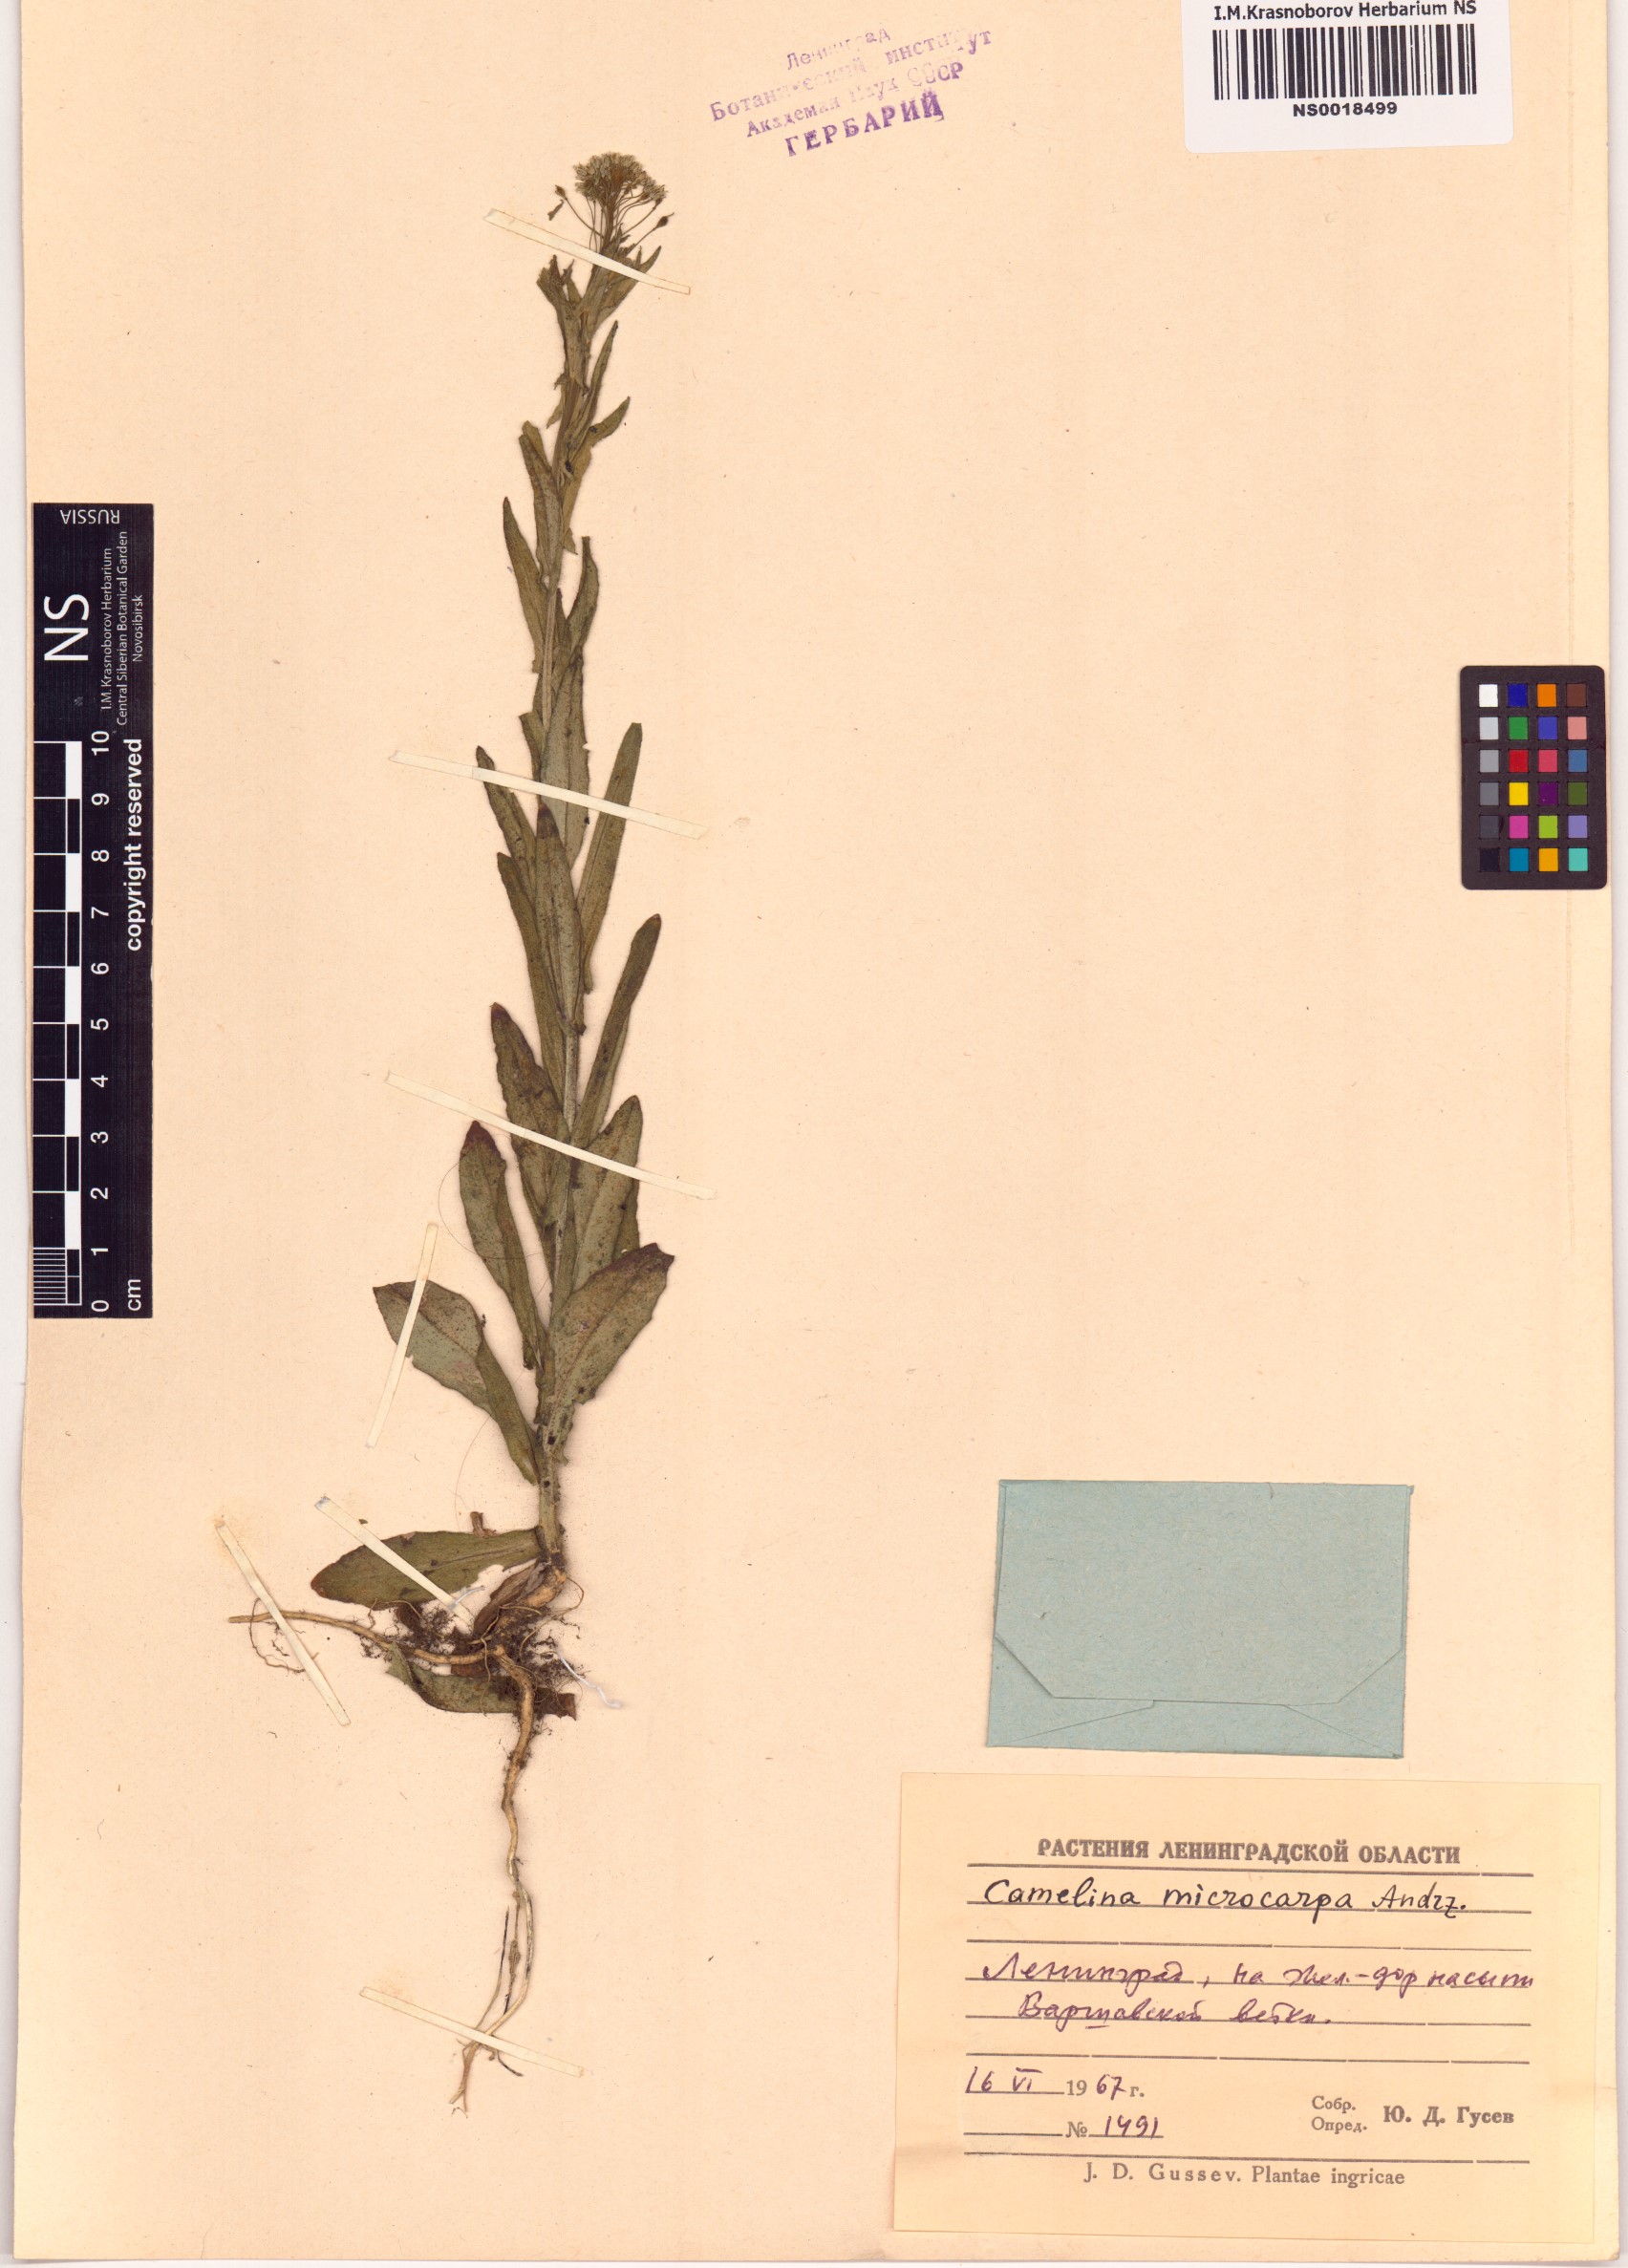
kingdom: Plantae
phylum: Tracheophyta
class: Magnoliopsida
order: Brassicales
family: Brassicaceae
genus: Camelina
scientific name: Camelina microcarpa
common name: Lesser gold-of-pleasure
